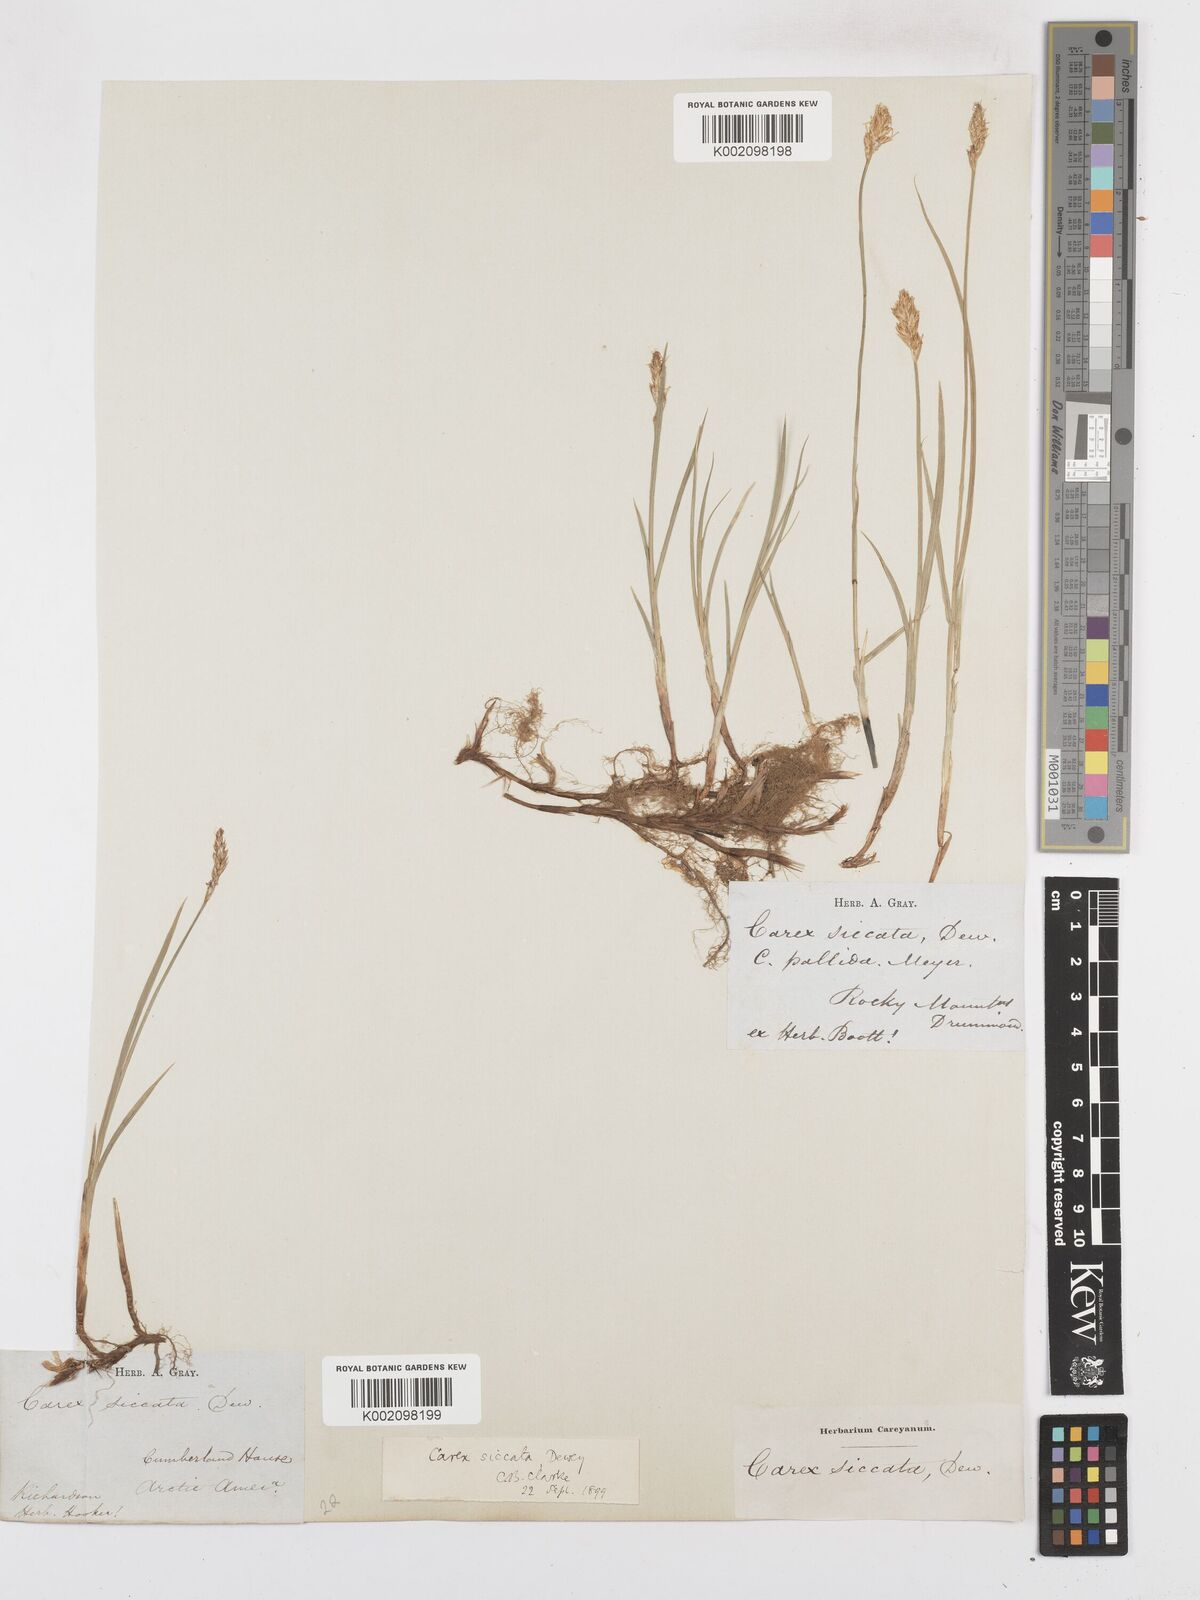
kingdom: Plantae
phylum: Tracheophyta
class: Liliopsida
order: Poales
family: Cyperaceae
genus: Carex
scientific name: Carex foenea
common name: Bronze sedge
